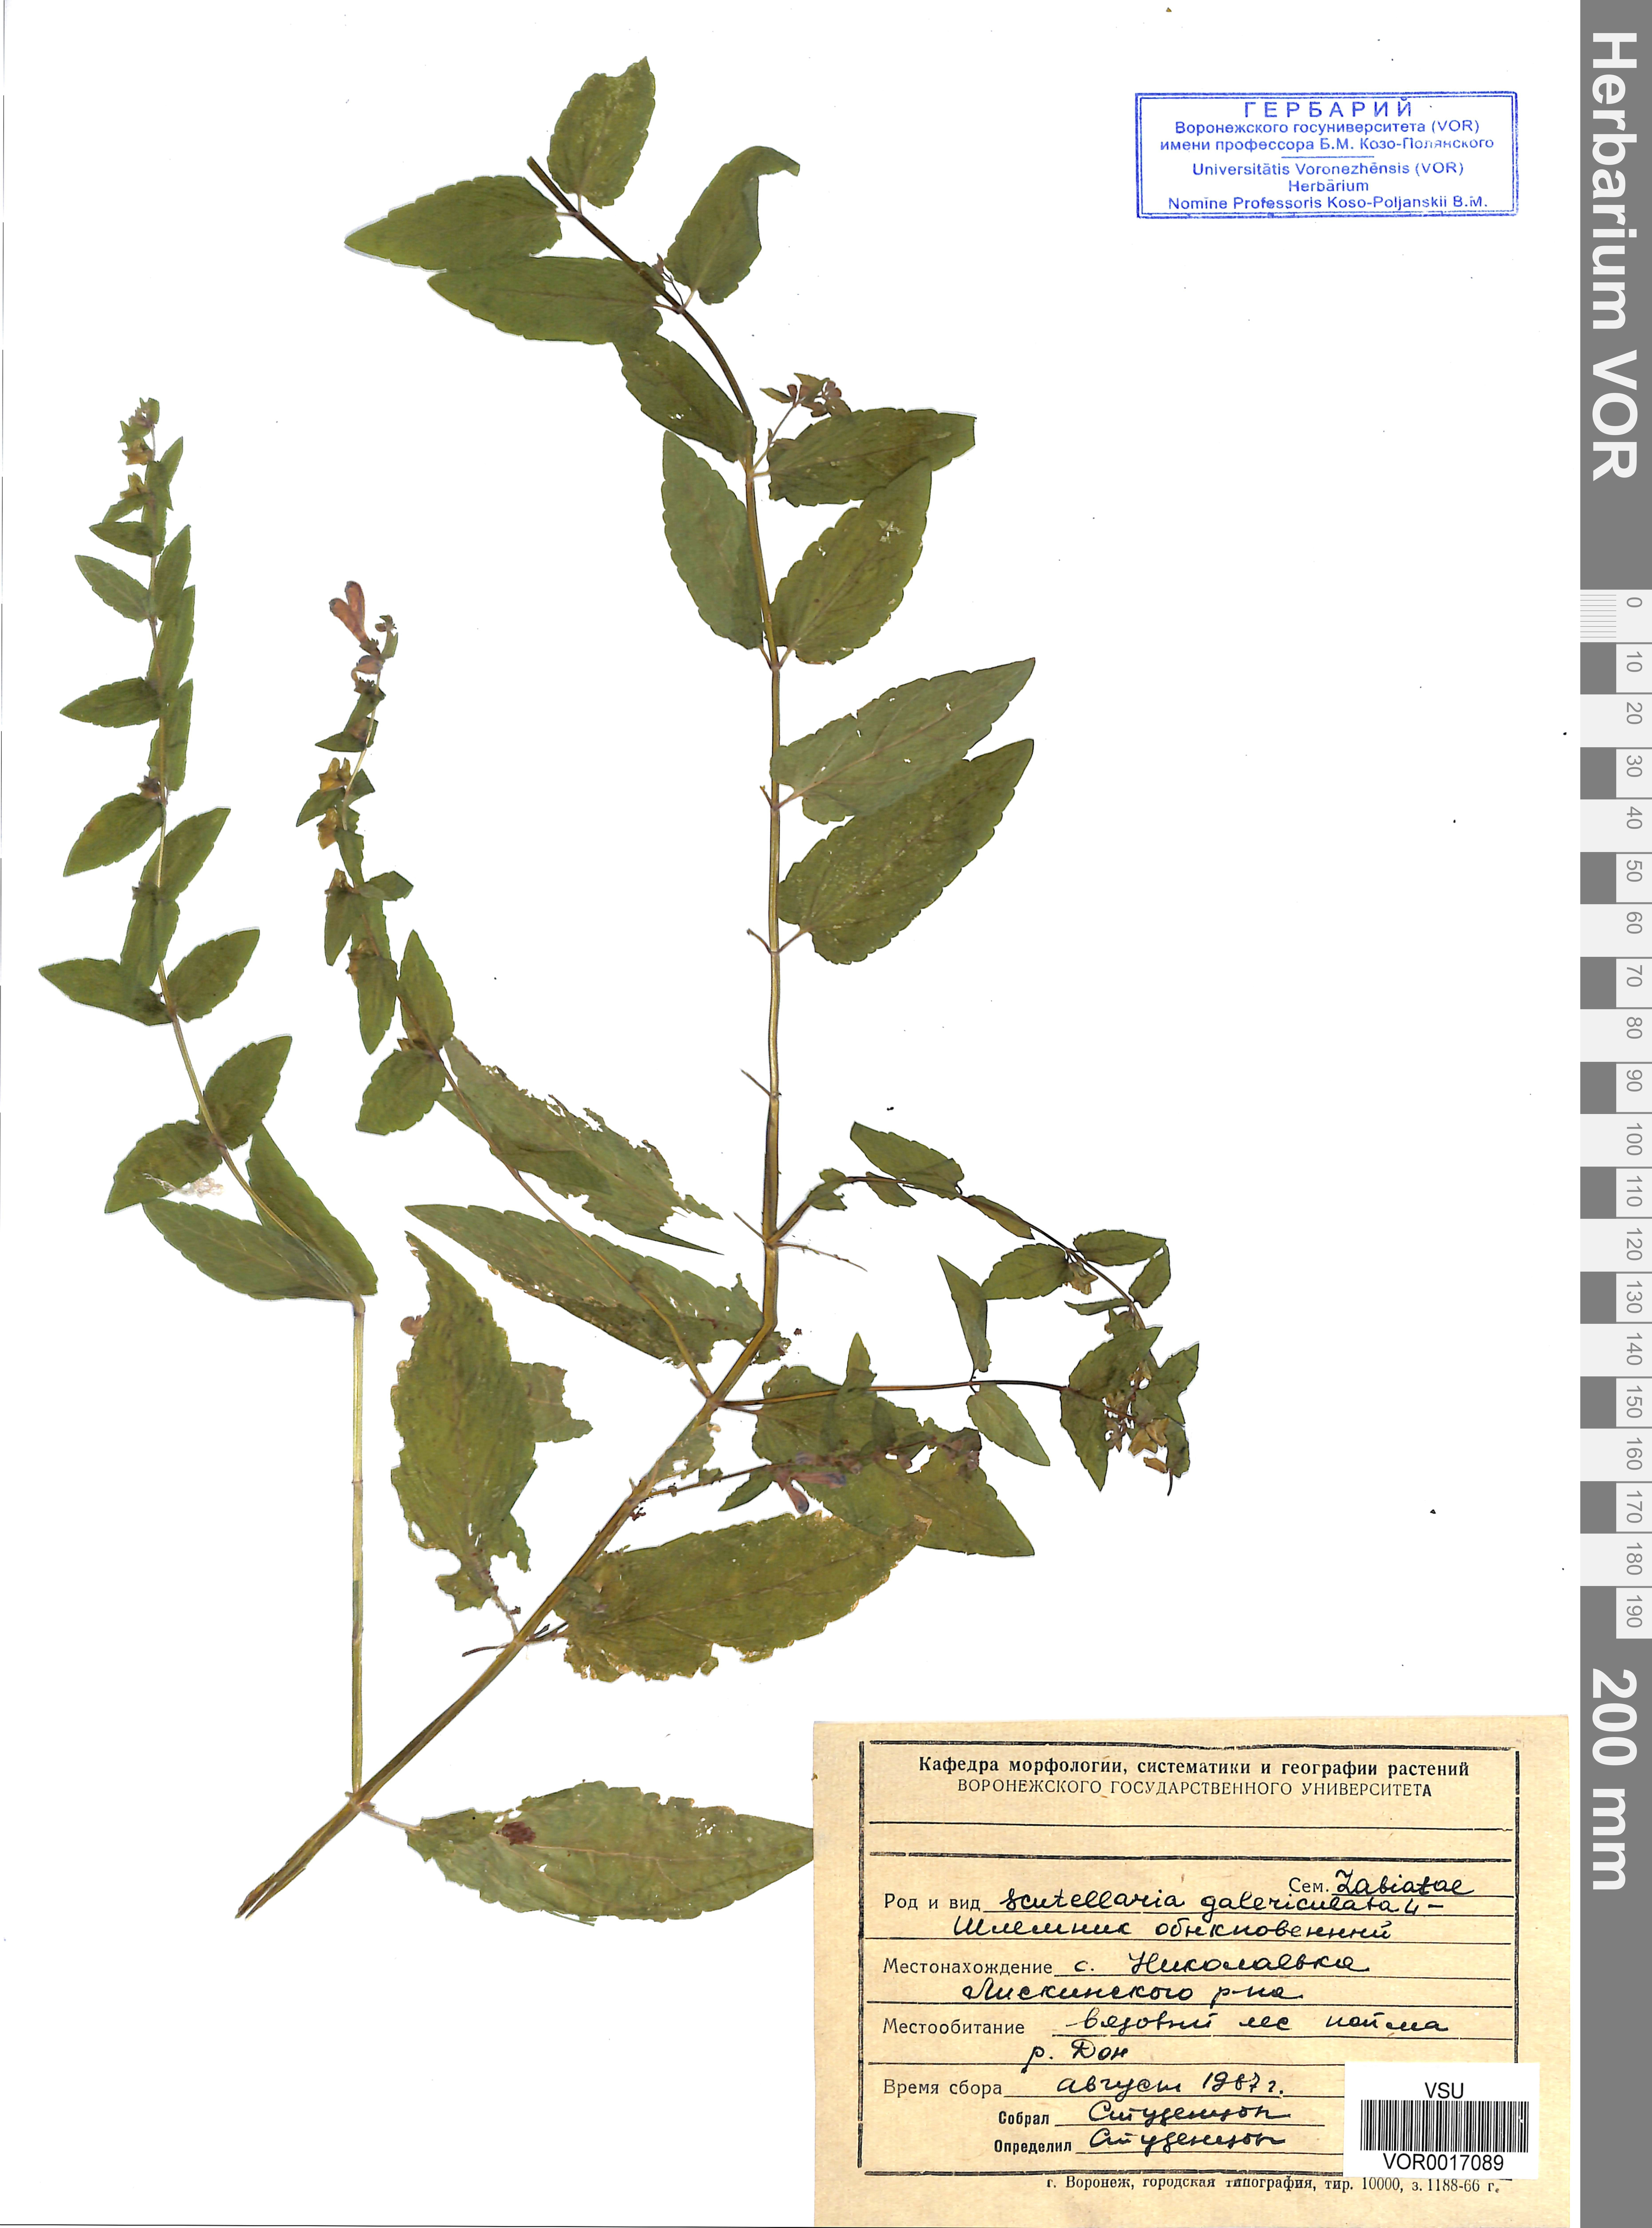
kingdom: Plantae
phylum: Tracheophyta
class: Magnoliopsida
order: Lamiales
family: Lamiaceae
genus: Scutellaria
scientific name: Scutellaria galericulata
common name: Skullcap
